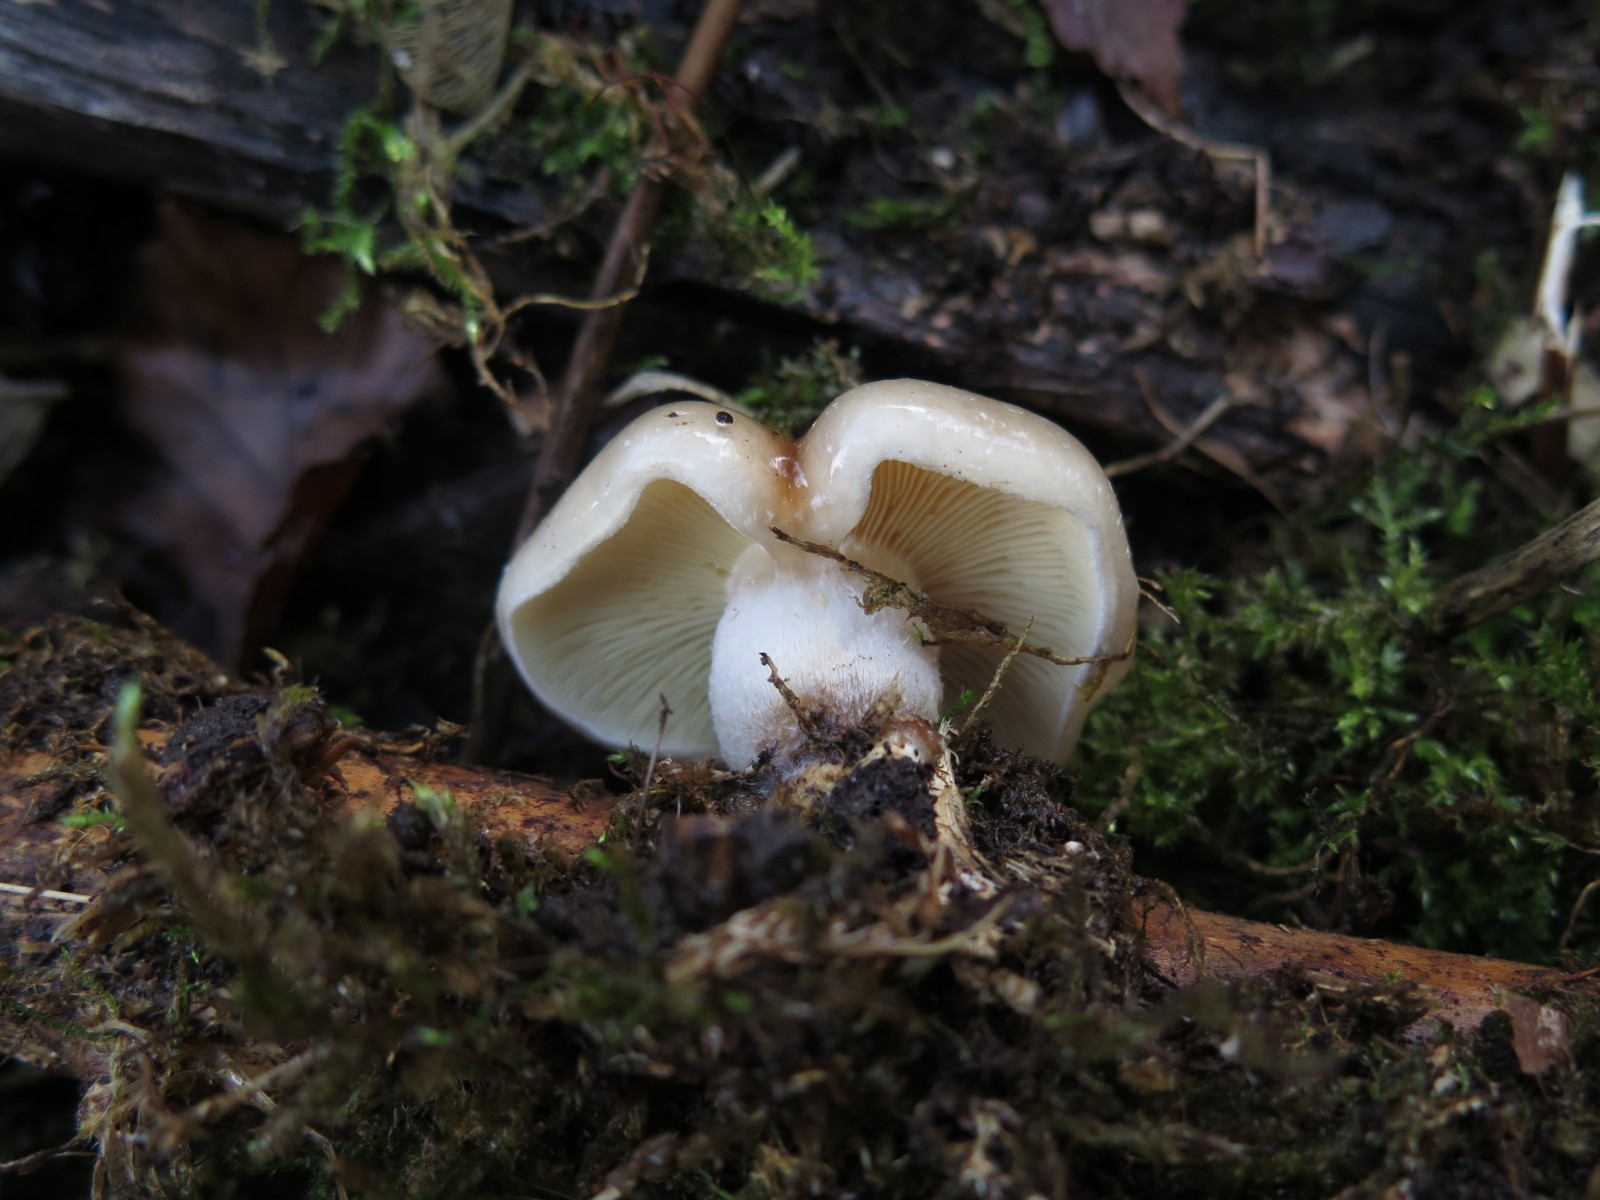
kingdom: Fungi
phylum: Basidiomycota
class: Agaricomycetes
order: Agaricales
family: Strophariaceae
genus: Pholiota
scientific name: Pholiota lenta
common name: løv-skælhat
